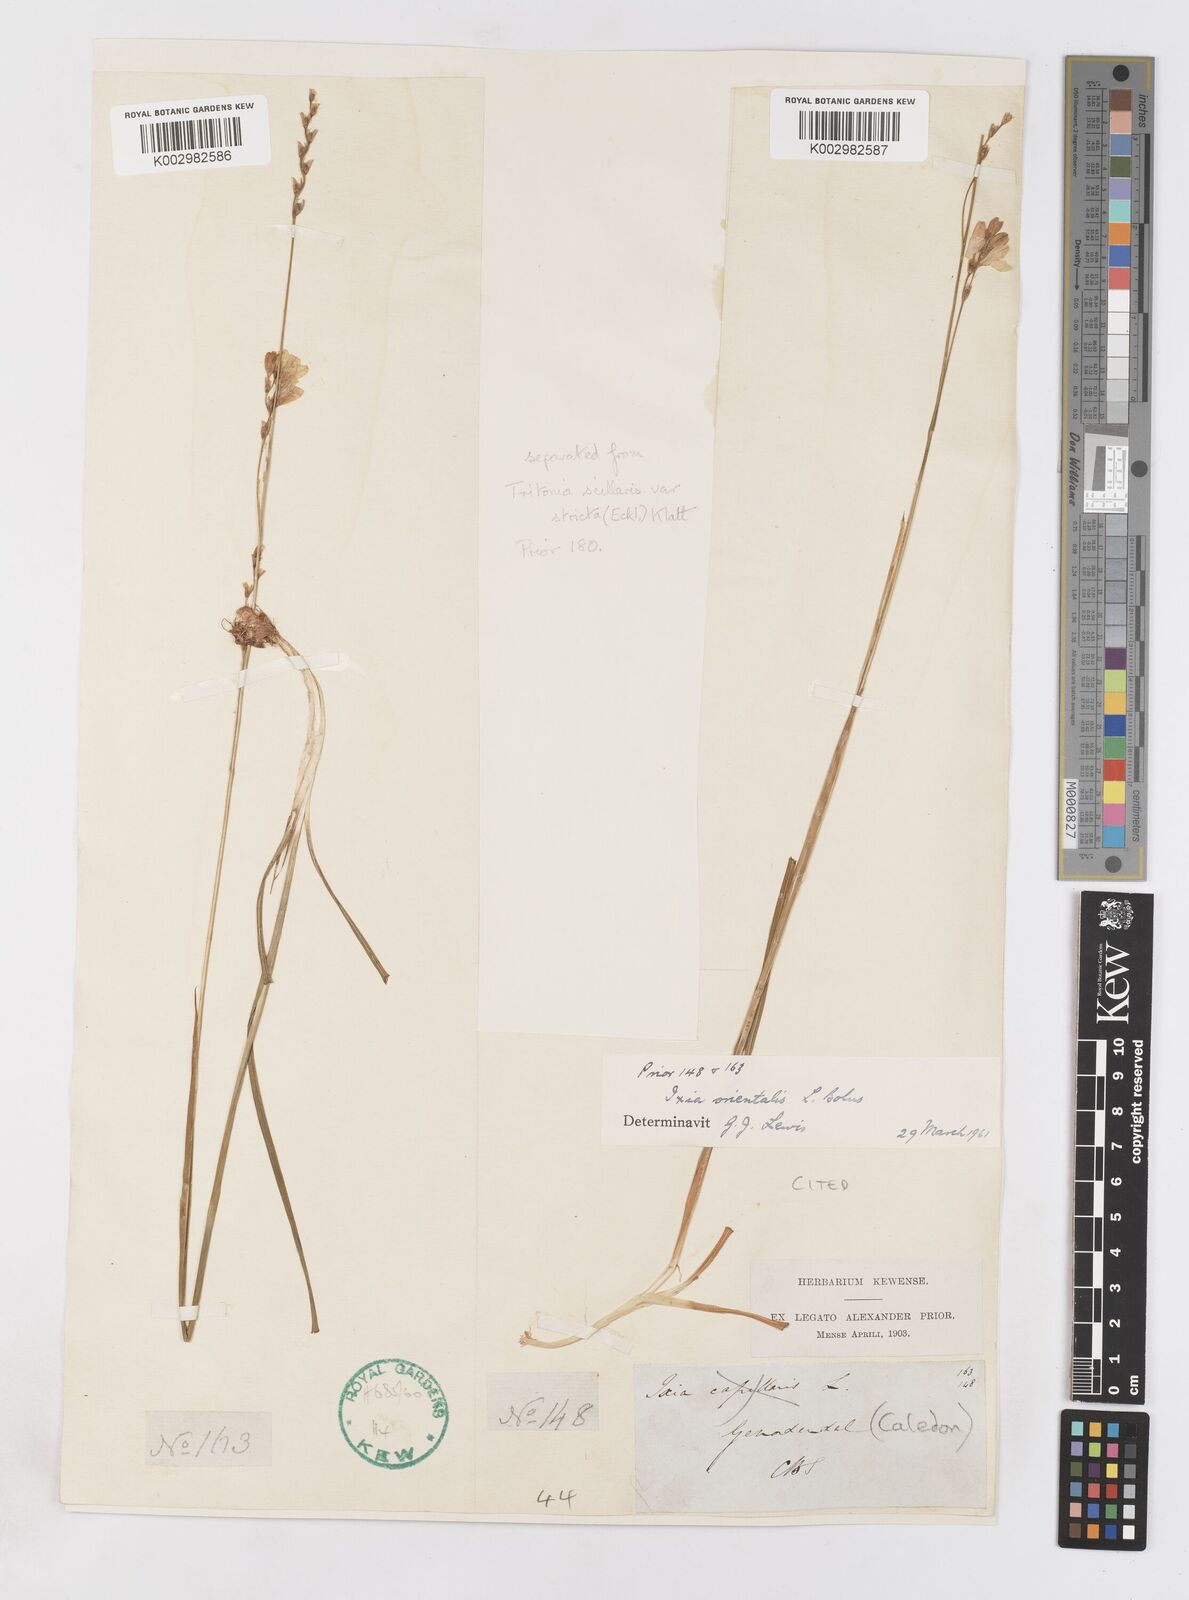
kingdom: Plantae
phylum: Tracheophyta
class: Liliopsida
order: Asparagales
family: Iridaceae
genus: Ixia
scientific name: Ixia orientalis
